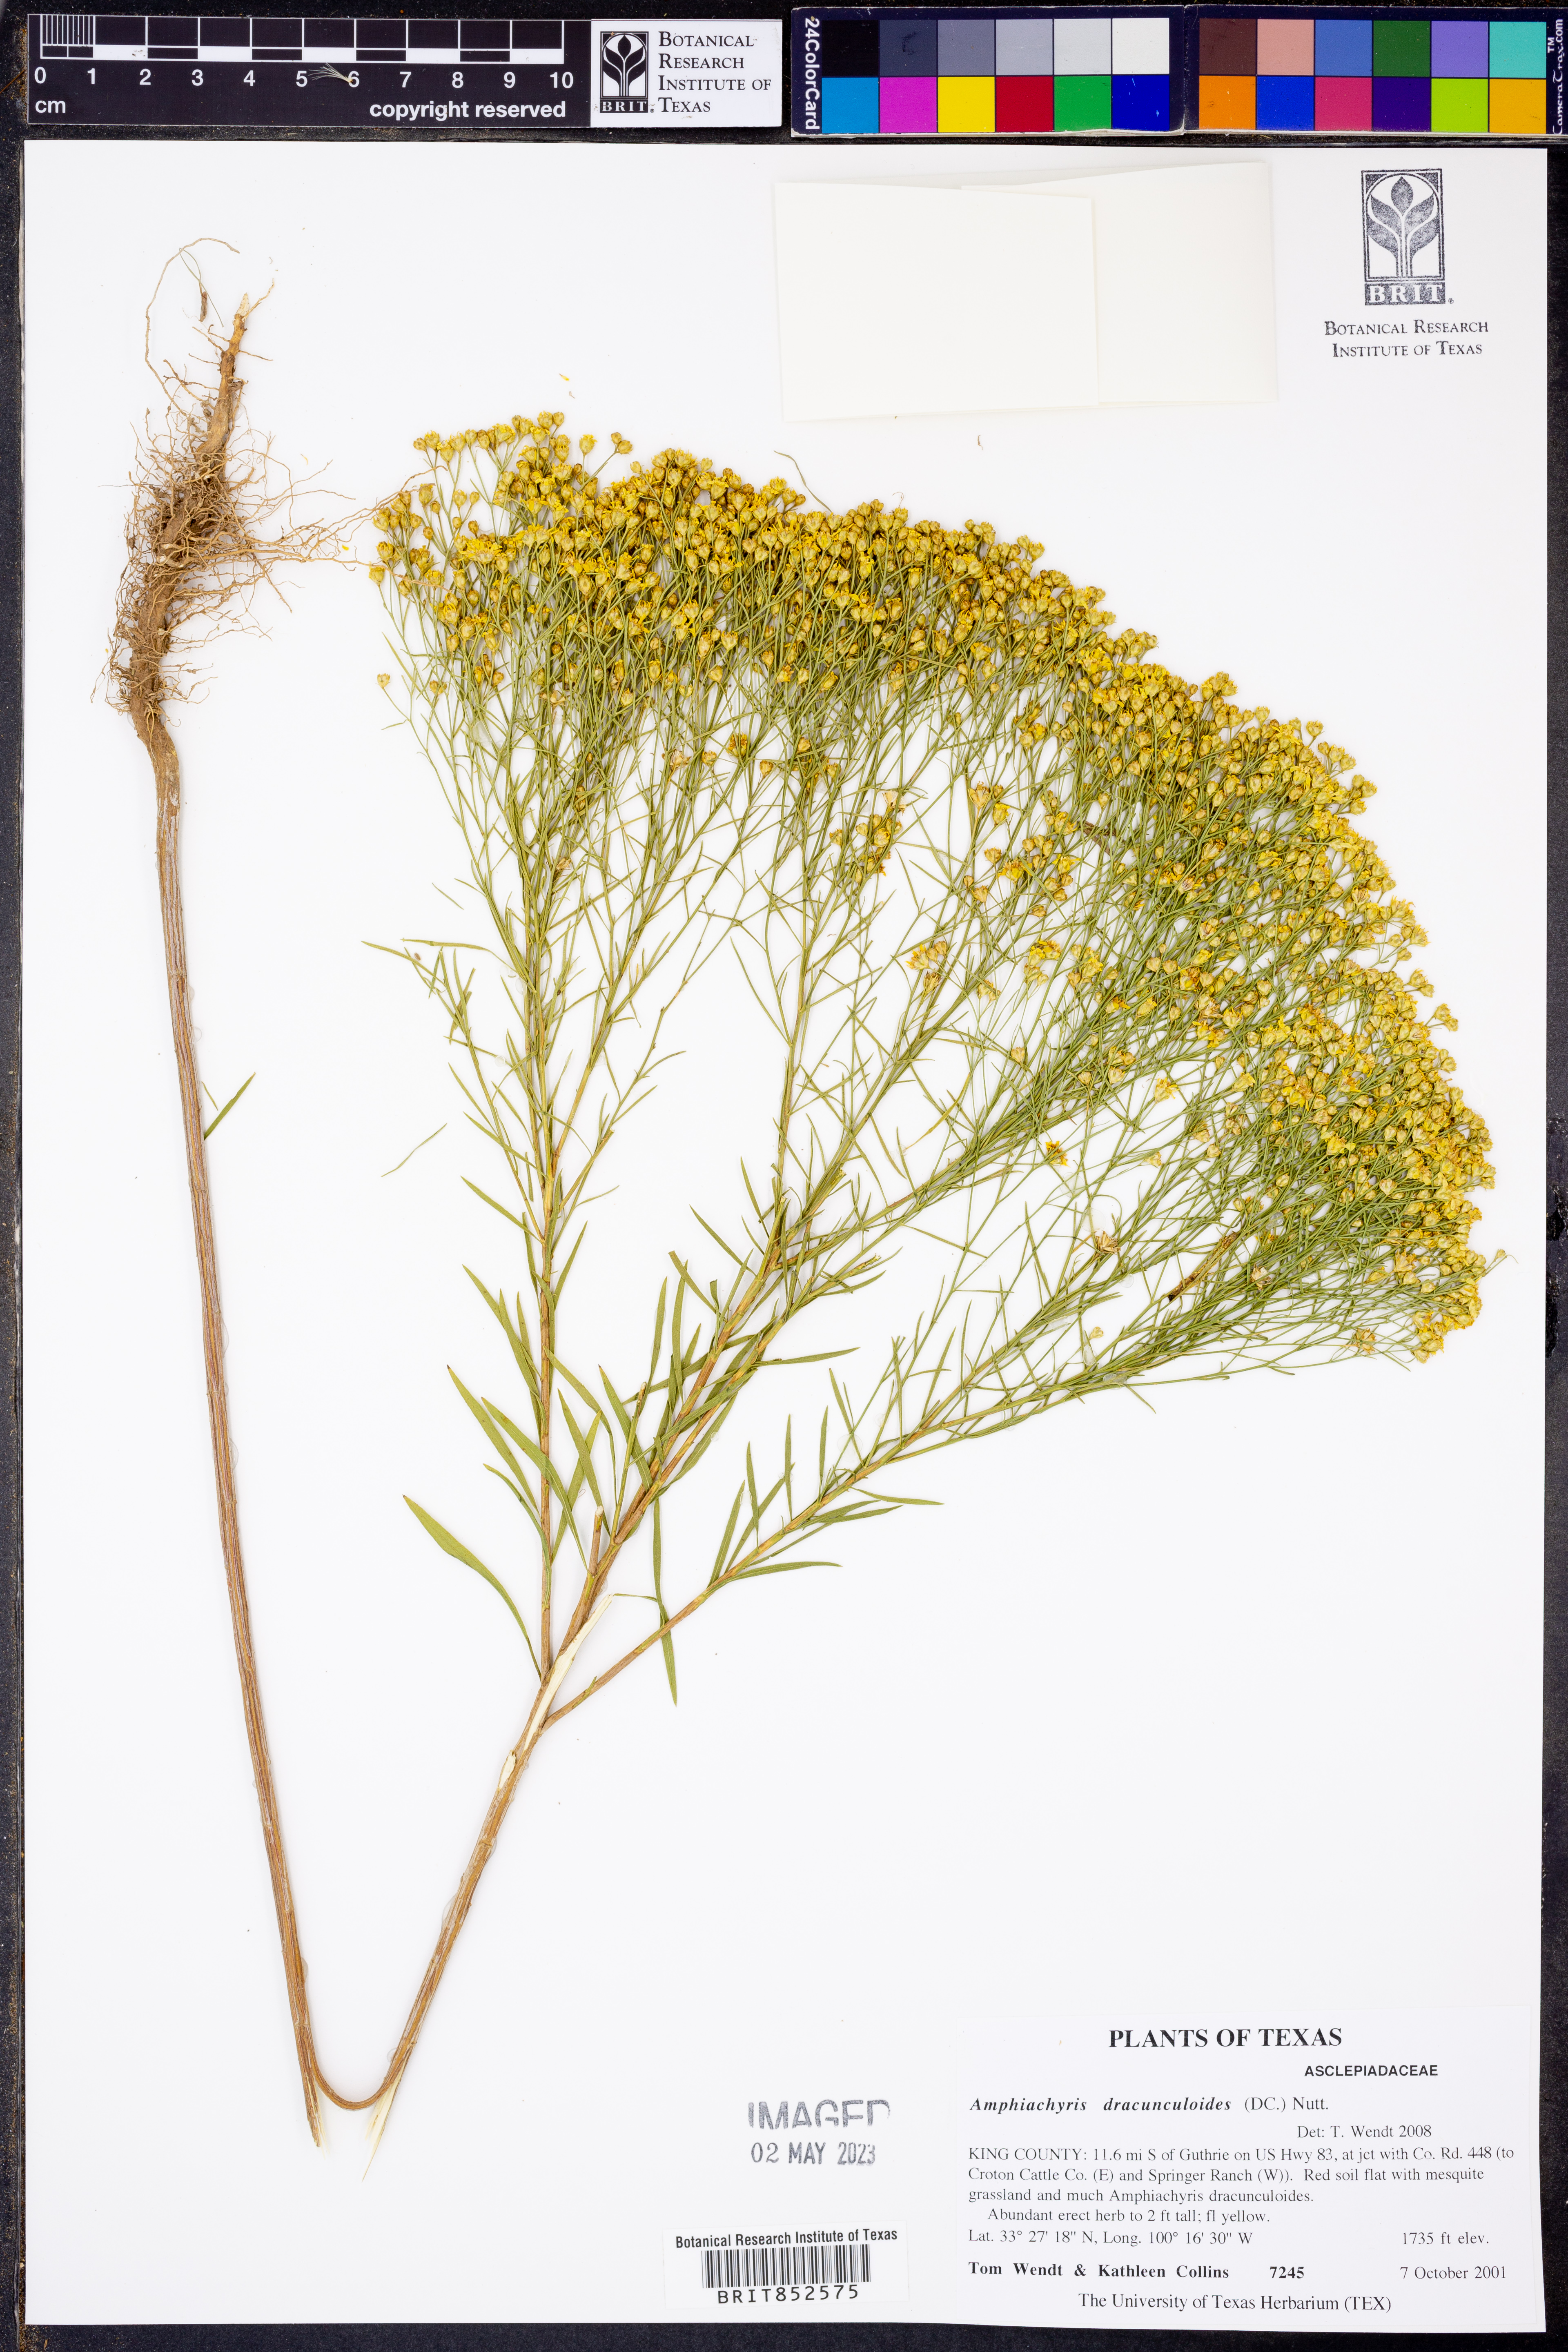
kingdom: Plantae
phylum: Tracheophyta
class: Magnoliopsida
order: Asterales
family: Asteraceae
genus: Amphiachyris
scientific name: Amphiachyris dracunculoides
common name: Broomweed
